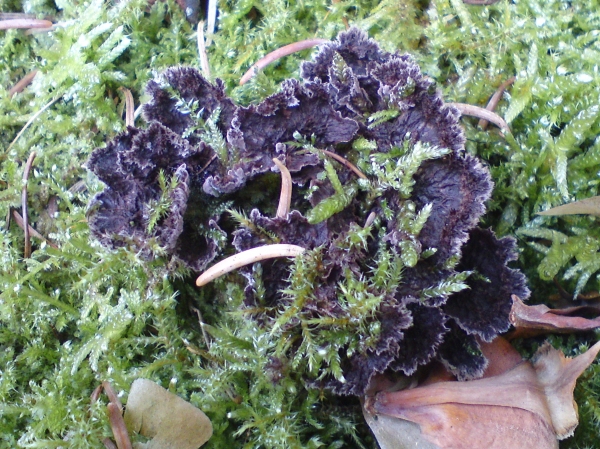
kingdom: Fungi
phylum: Basidiomycota
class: Agaricomycetes
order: Thelephorales
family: Thelephoraceae
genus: Thelephora
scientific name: Thelephora terrestris
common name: fliget frynsesvamp
